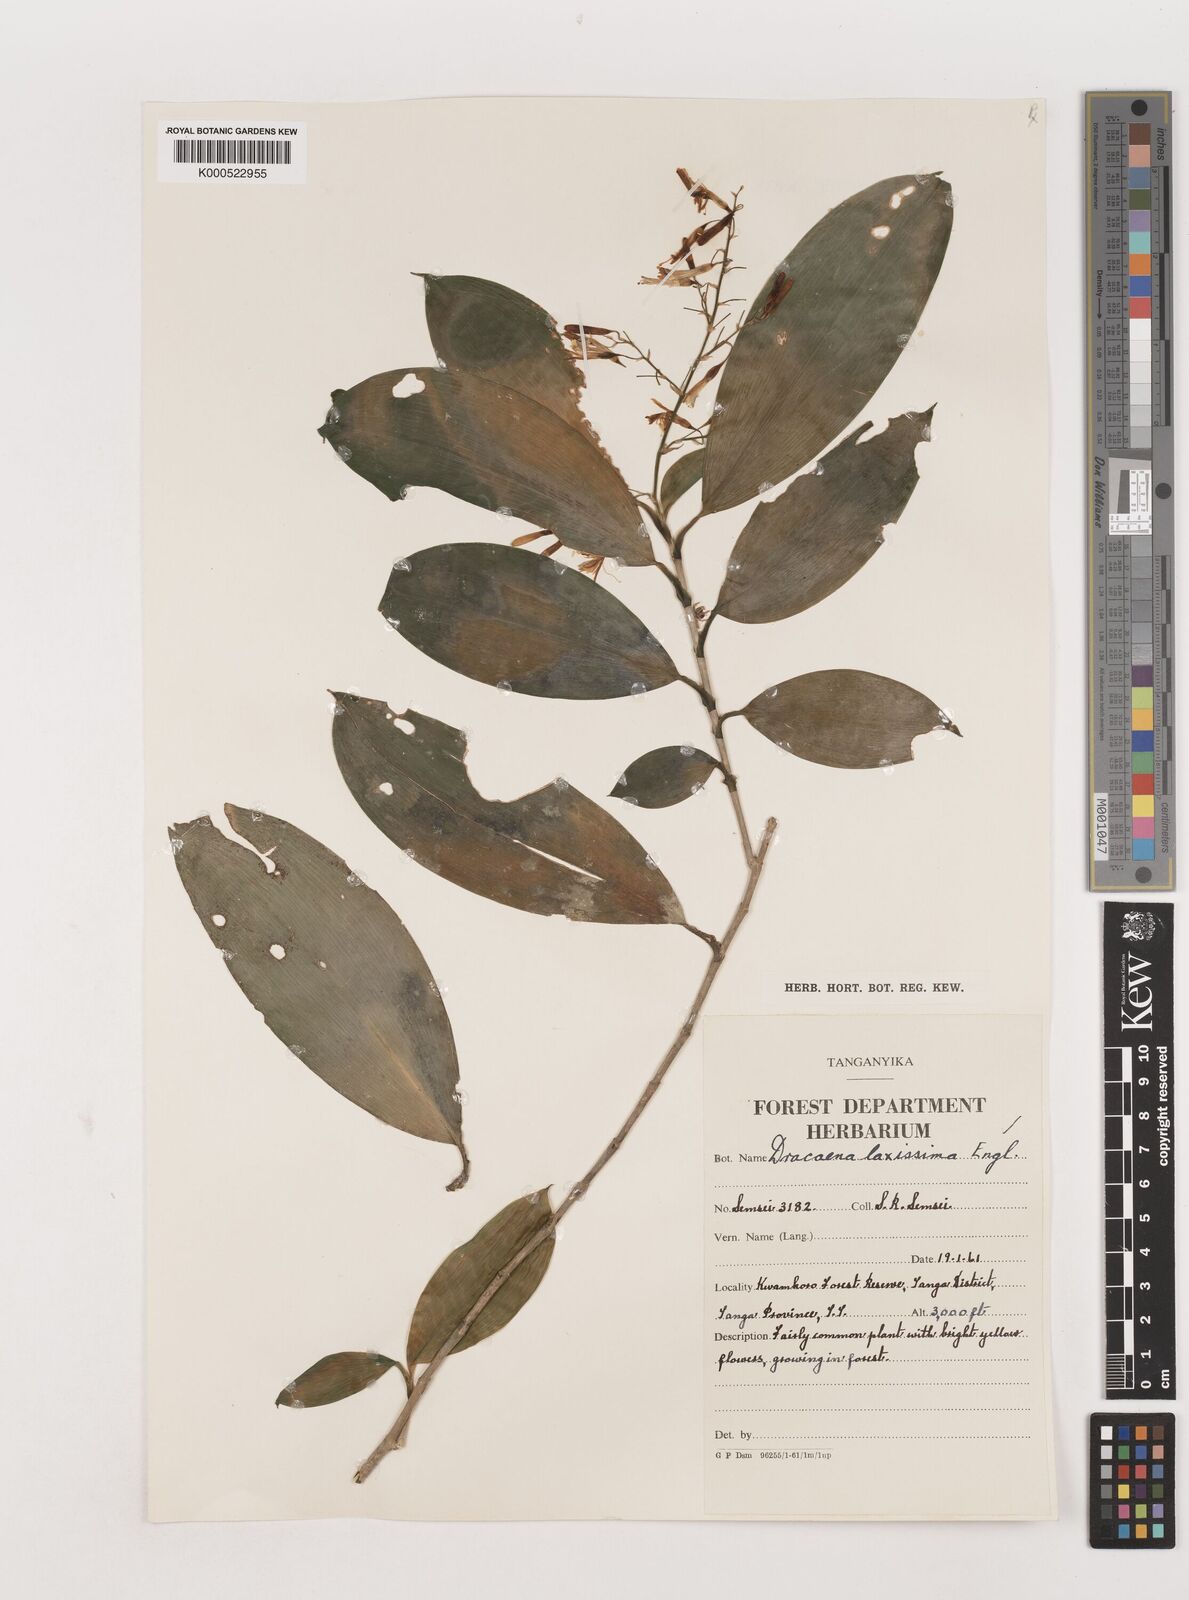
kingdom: Plantae
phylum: Tracheophyta
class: Liliopsida
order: Asparagales
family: Asparagaceae
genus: Dracaena
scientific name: Dracaena laxissima
